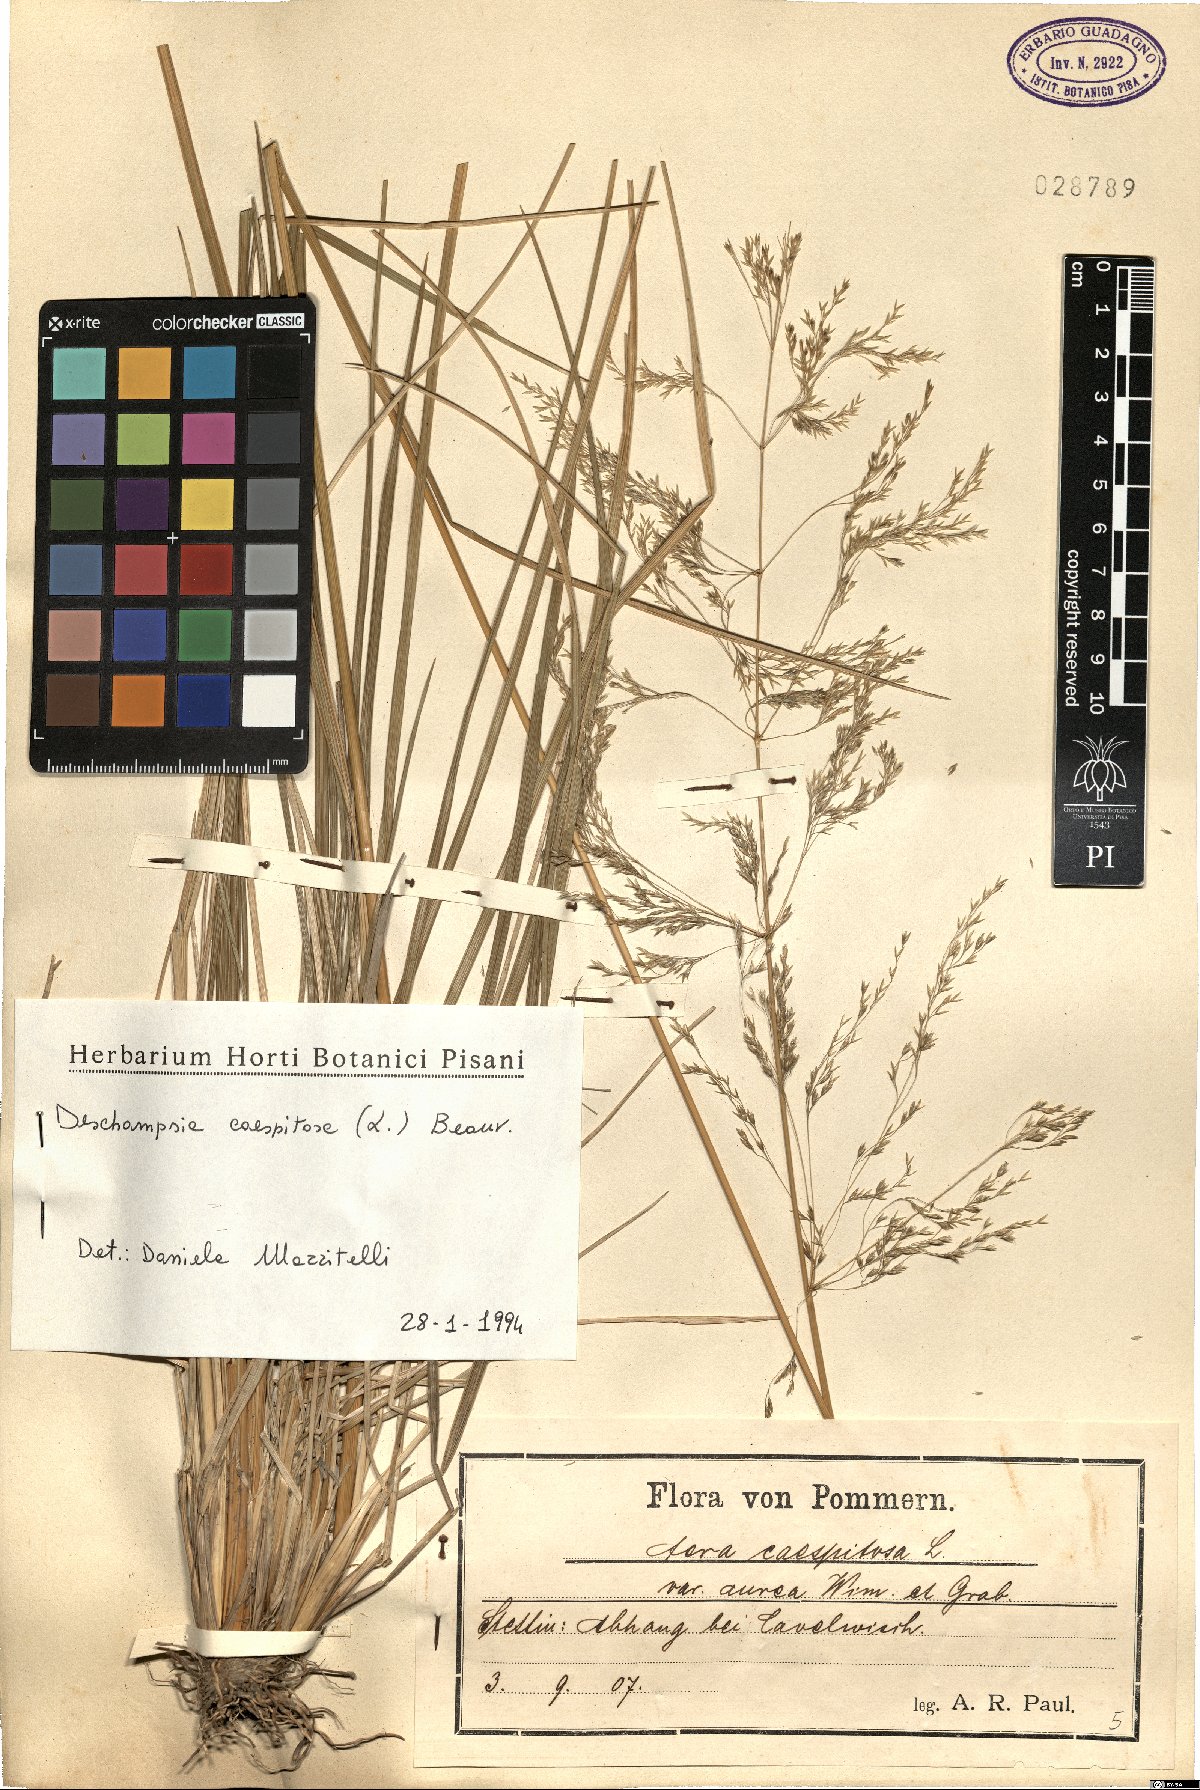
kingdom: Plantae
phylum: Tracheophyta
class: Liliopsida
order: Poales
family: Poaceae
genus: Deschampsia
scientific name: Deschampsia cespitosa
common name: Tufted hair-grass
